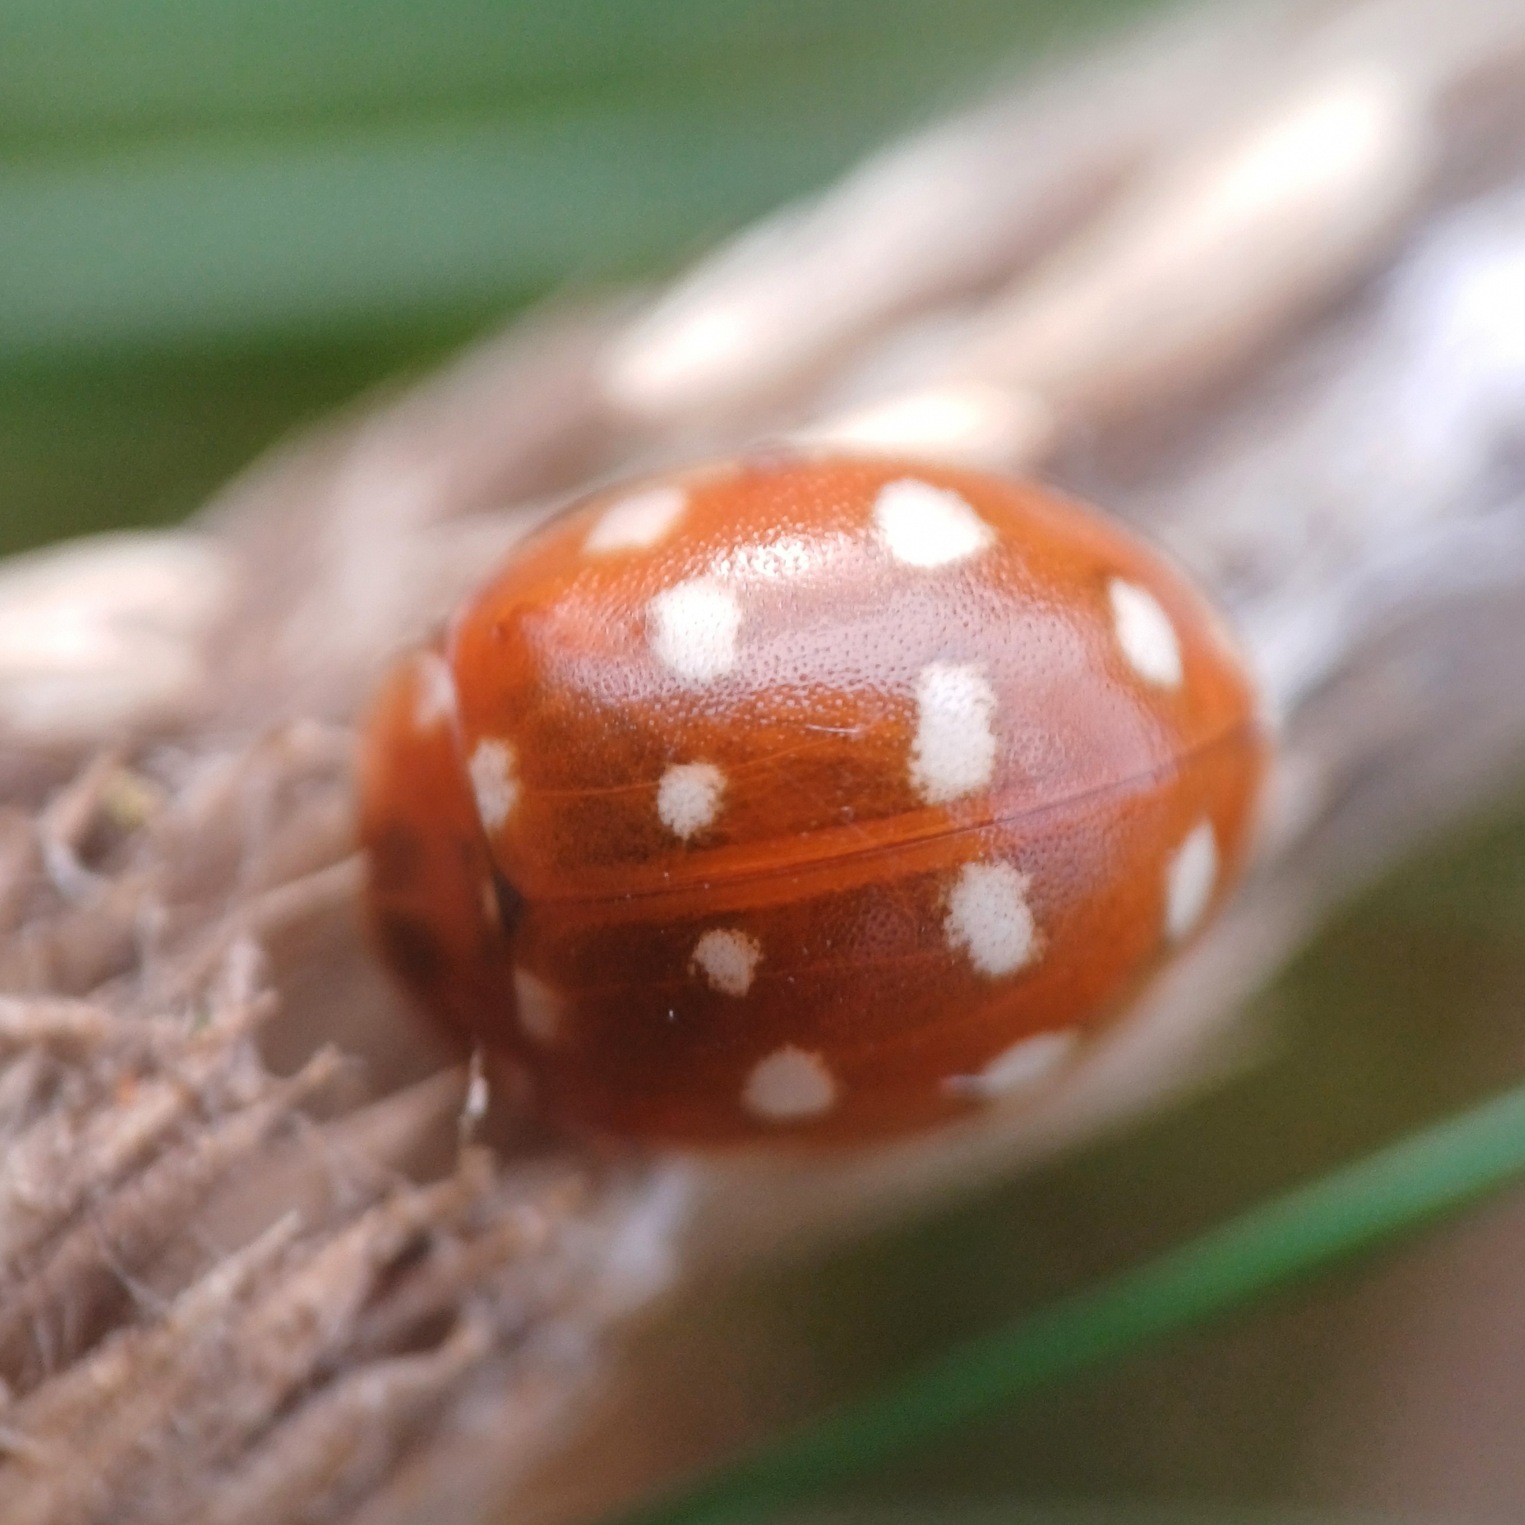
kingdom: Animalia
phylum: Arthropoda
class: Insecta
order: Coleoptera
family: Coccinellidae
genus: Calvia
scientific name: Calvia quatuordecimguttata
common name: Fjortenplettet mariehøne
